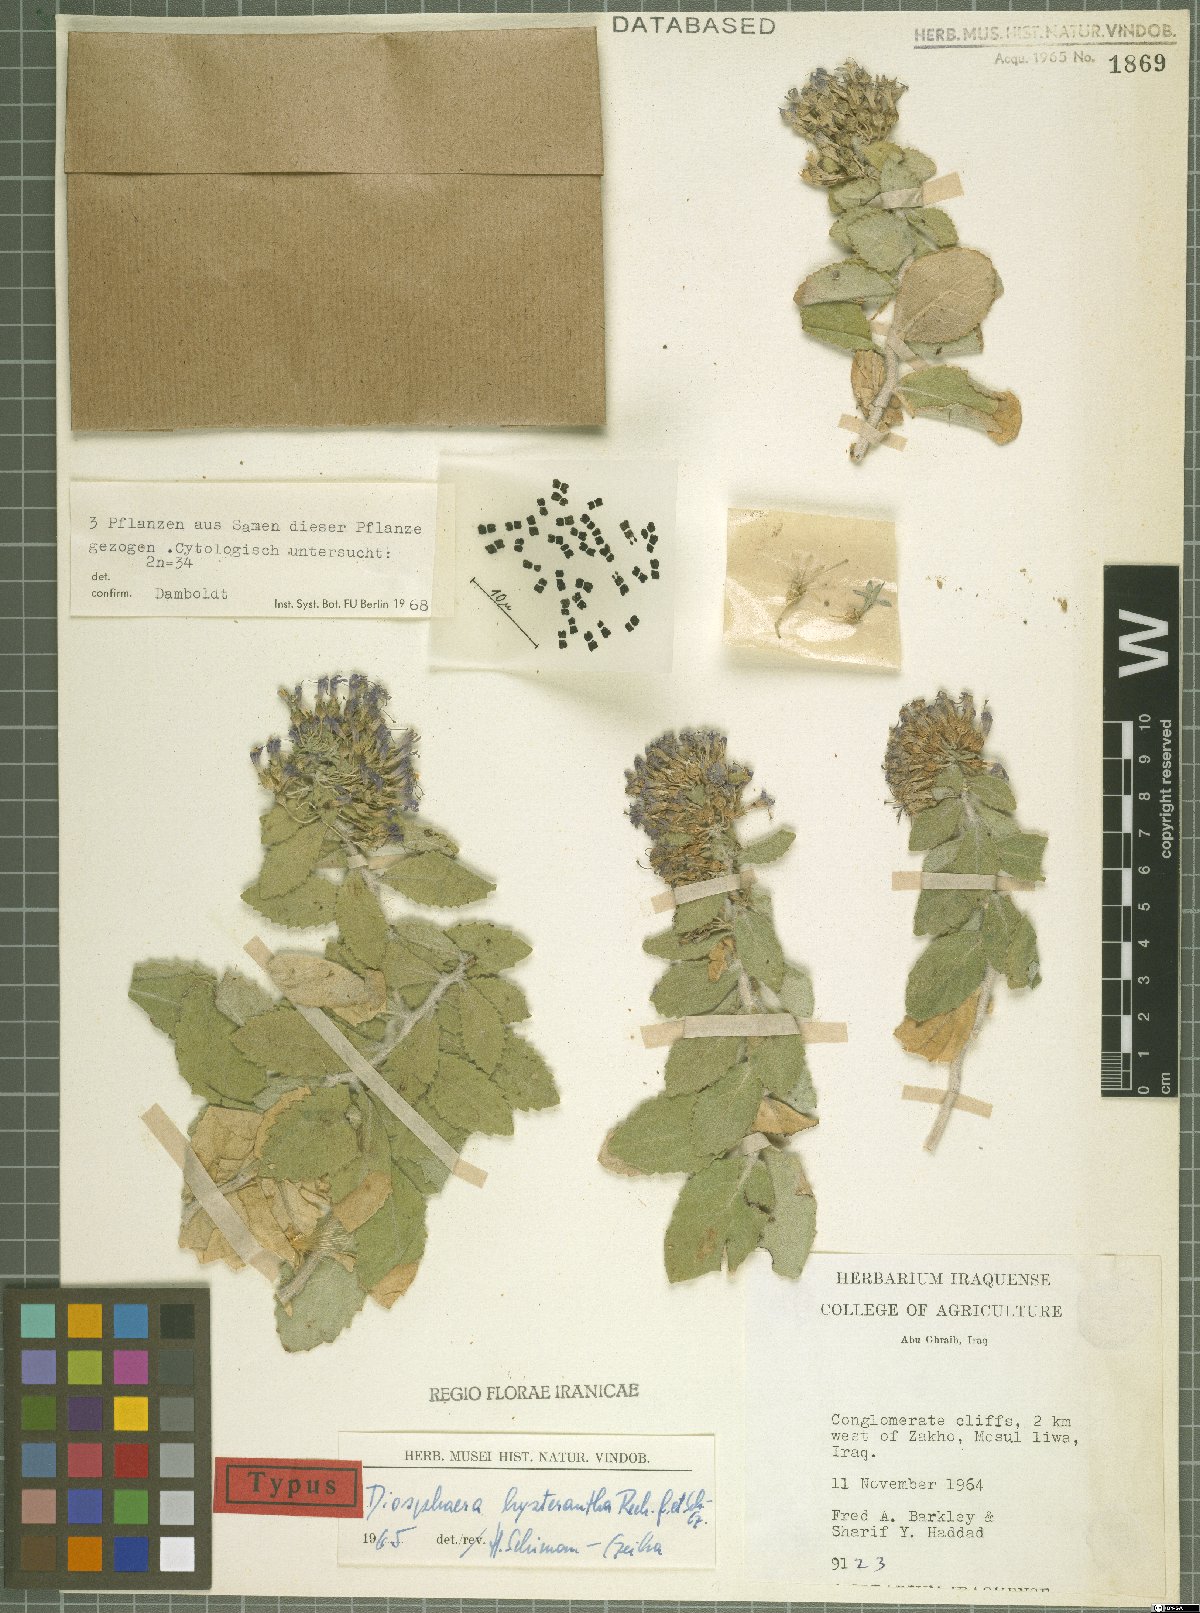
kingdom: Plantae
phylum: Tracheophyta
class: Magnoliopsida
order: Asterales
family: Campanulaceae
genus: Campanula
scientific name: Campanula postii
